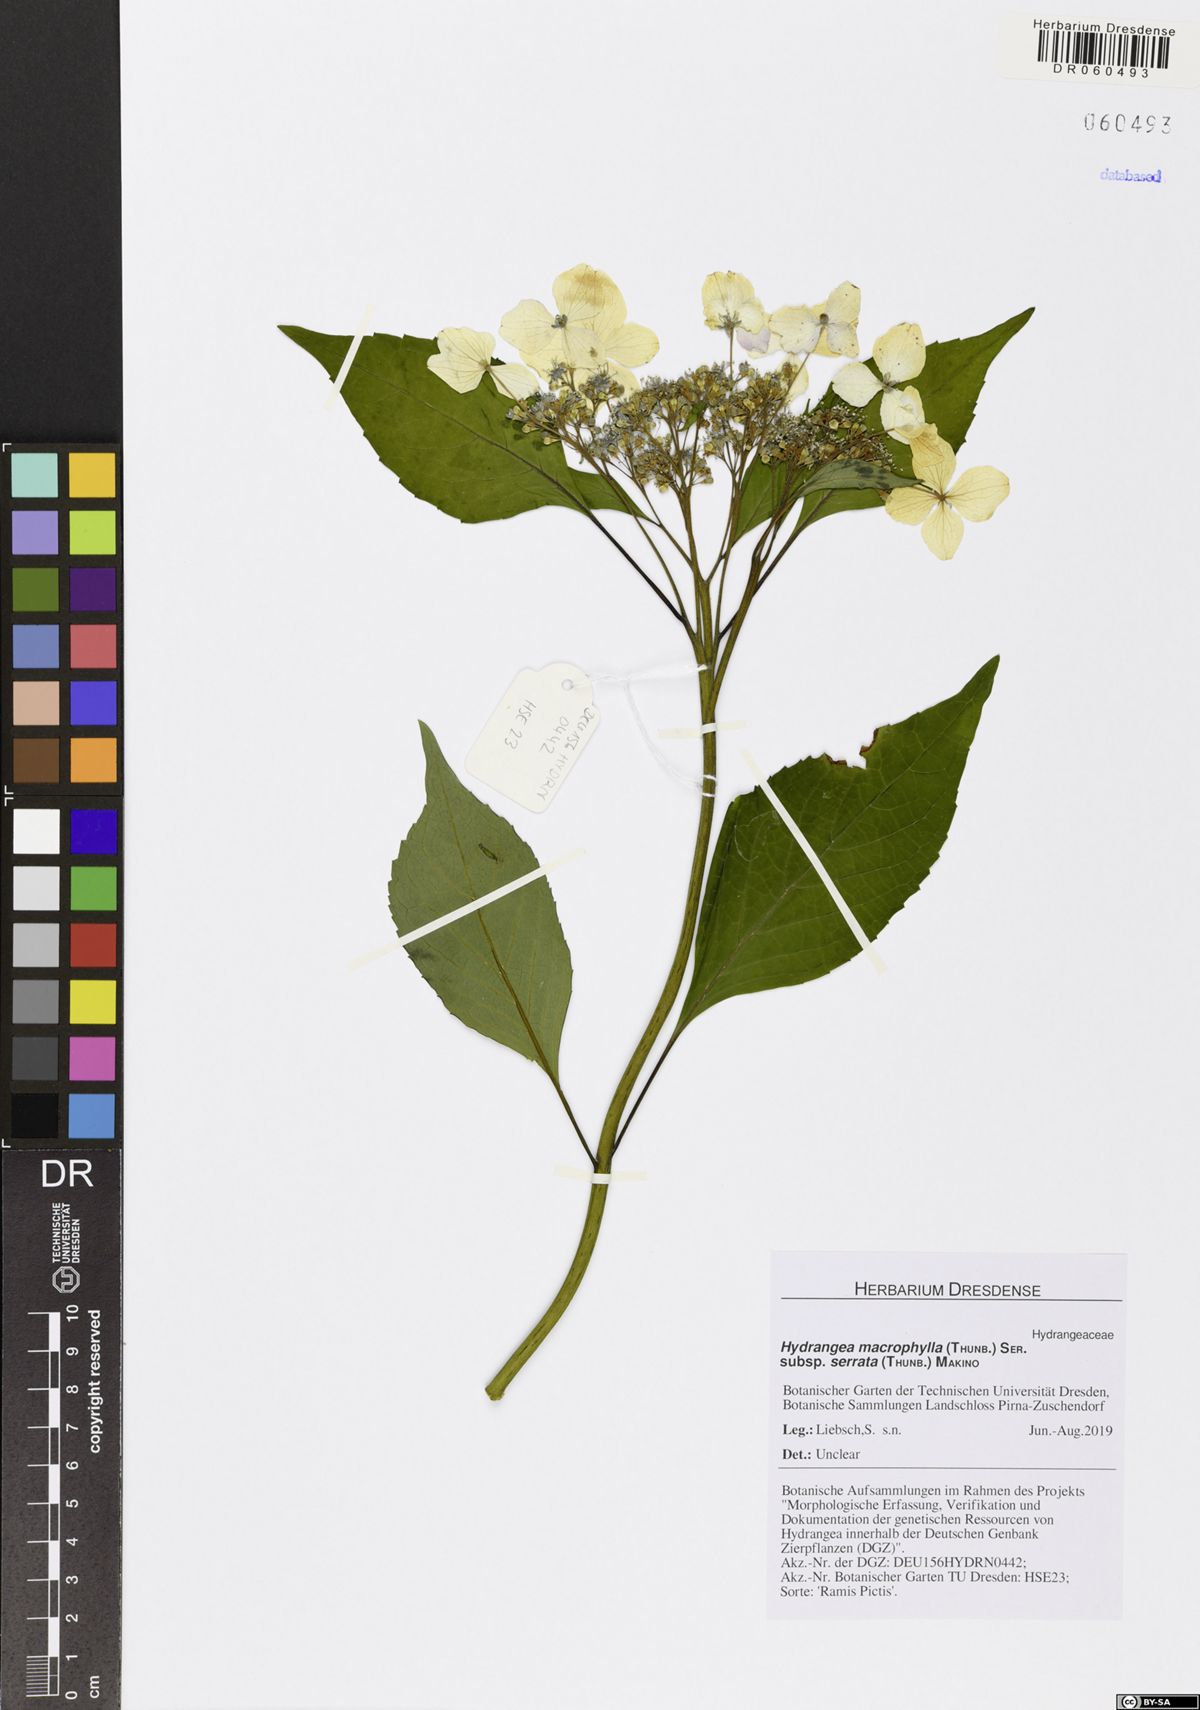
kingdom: Plantae
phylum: Tracheophyta
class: Magnoliopsida
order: Cornales
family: Hydrangeaceae
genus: Hydrangea
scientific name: Hydrangea serrata
